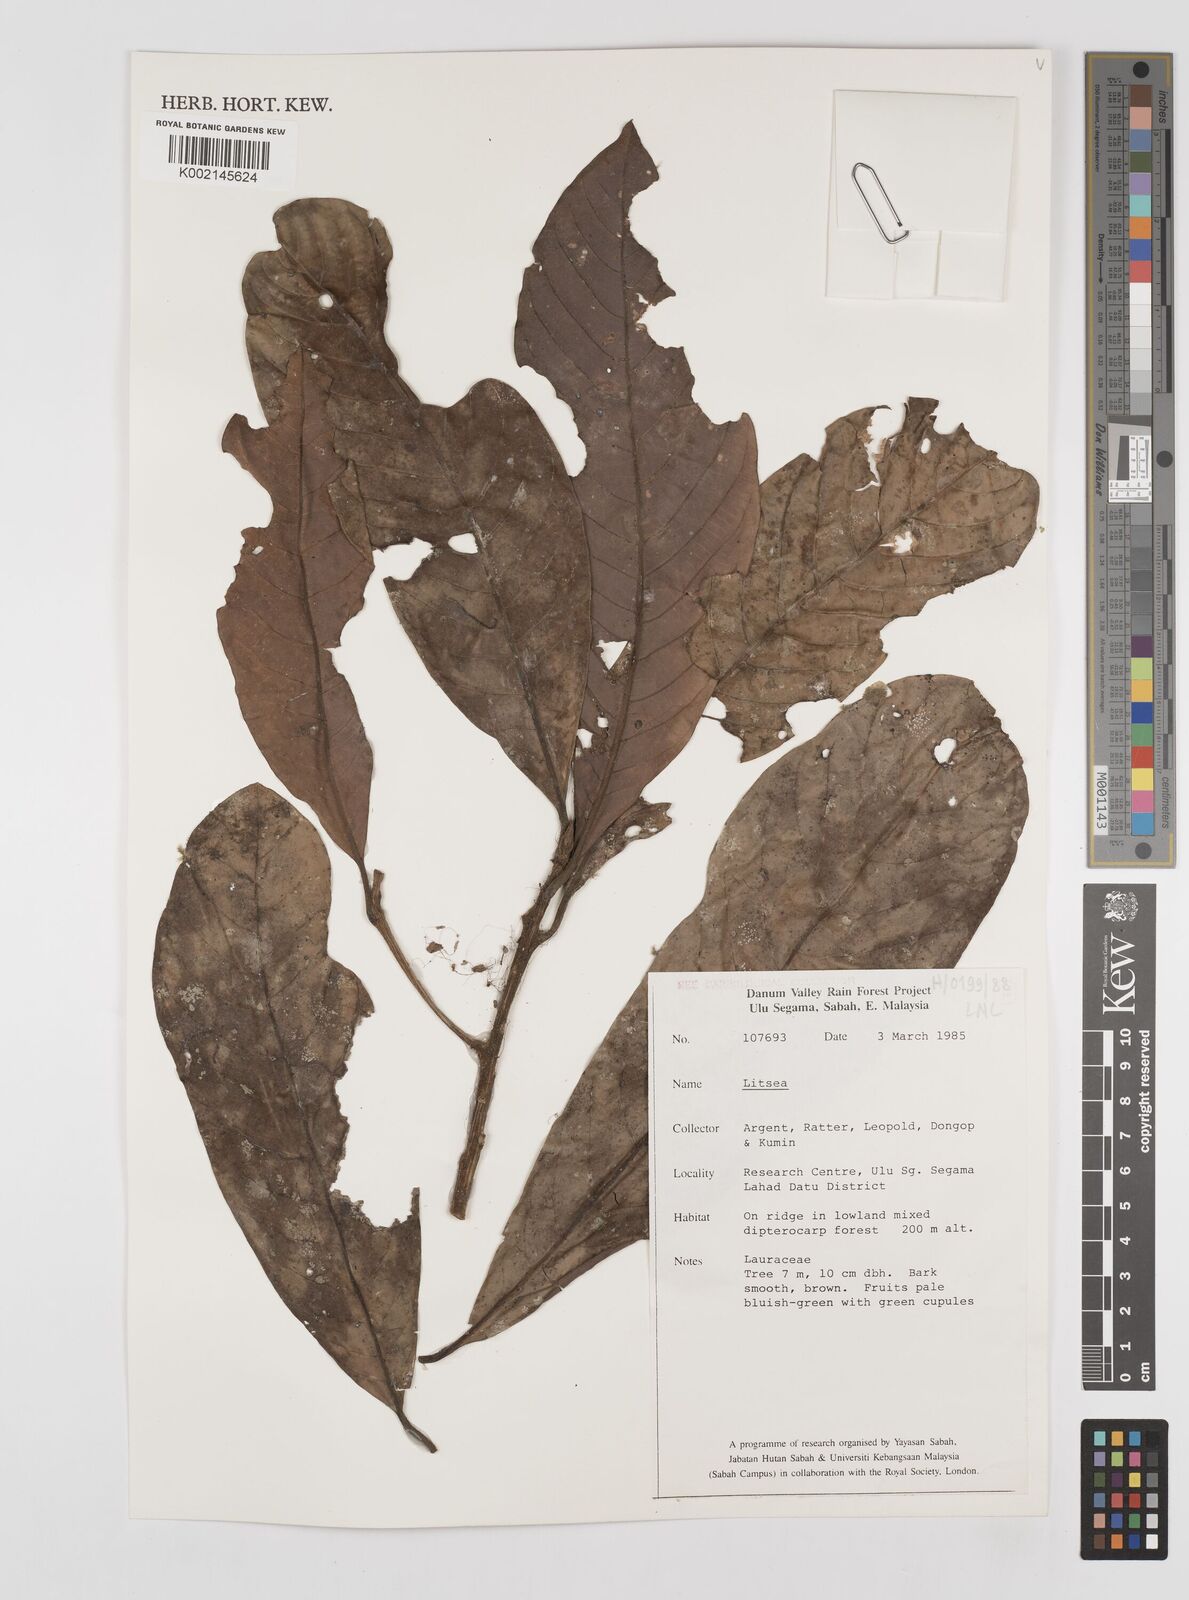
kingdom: Plantae
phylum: Tracheophyta
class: Magnoliopsida
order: Laurales
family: Lauraceae
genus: Litsea
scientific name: Litsea
